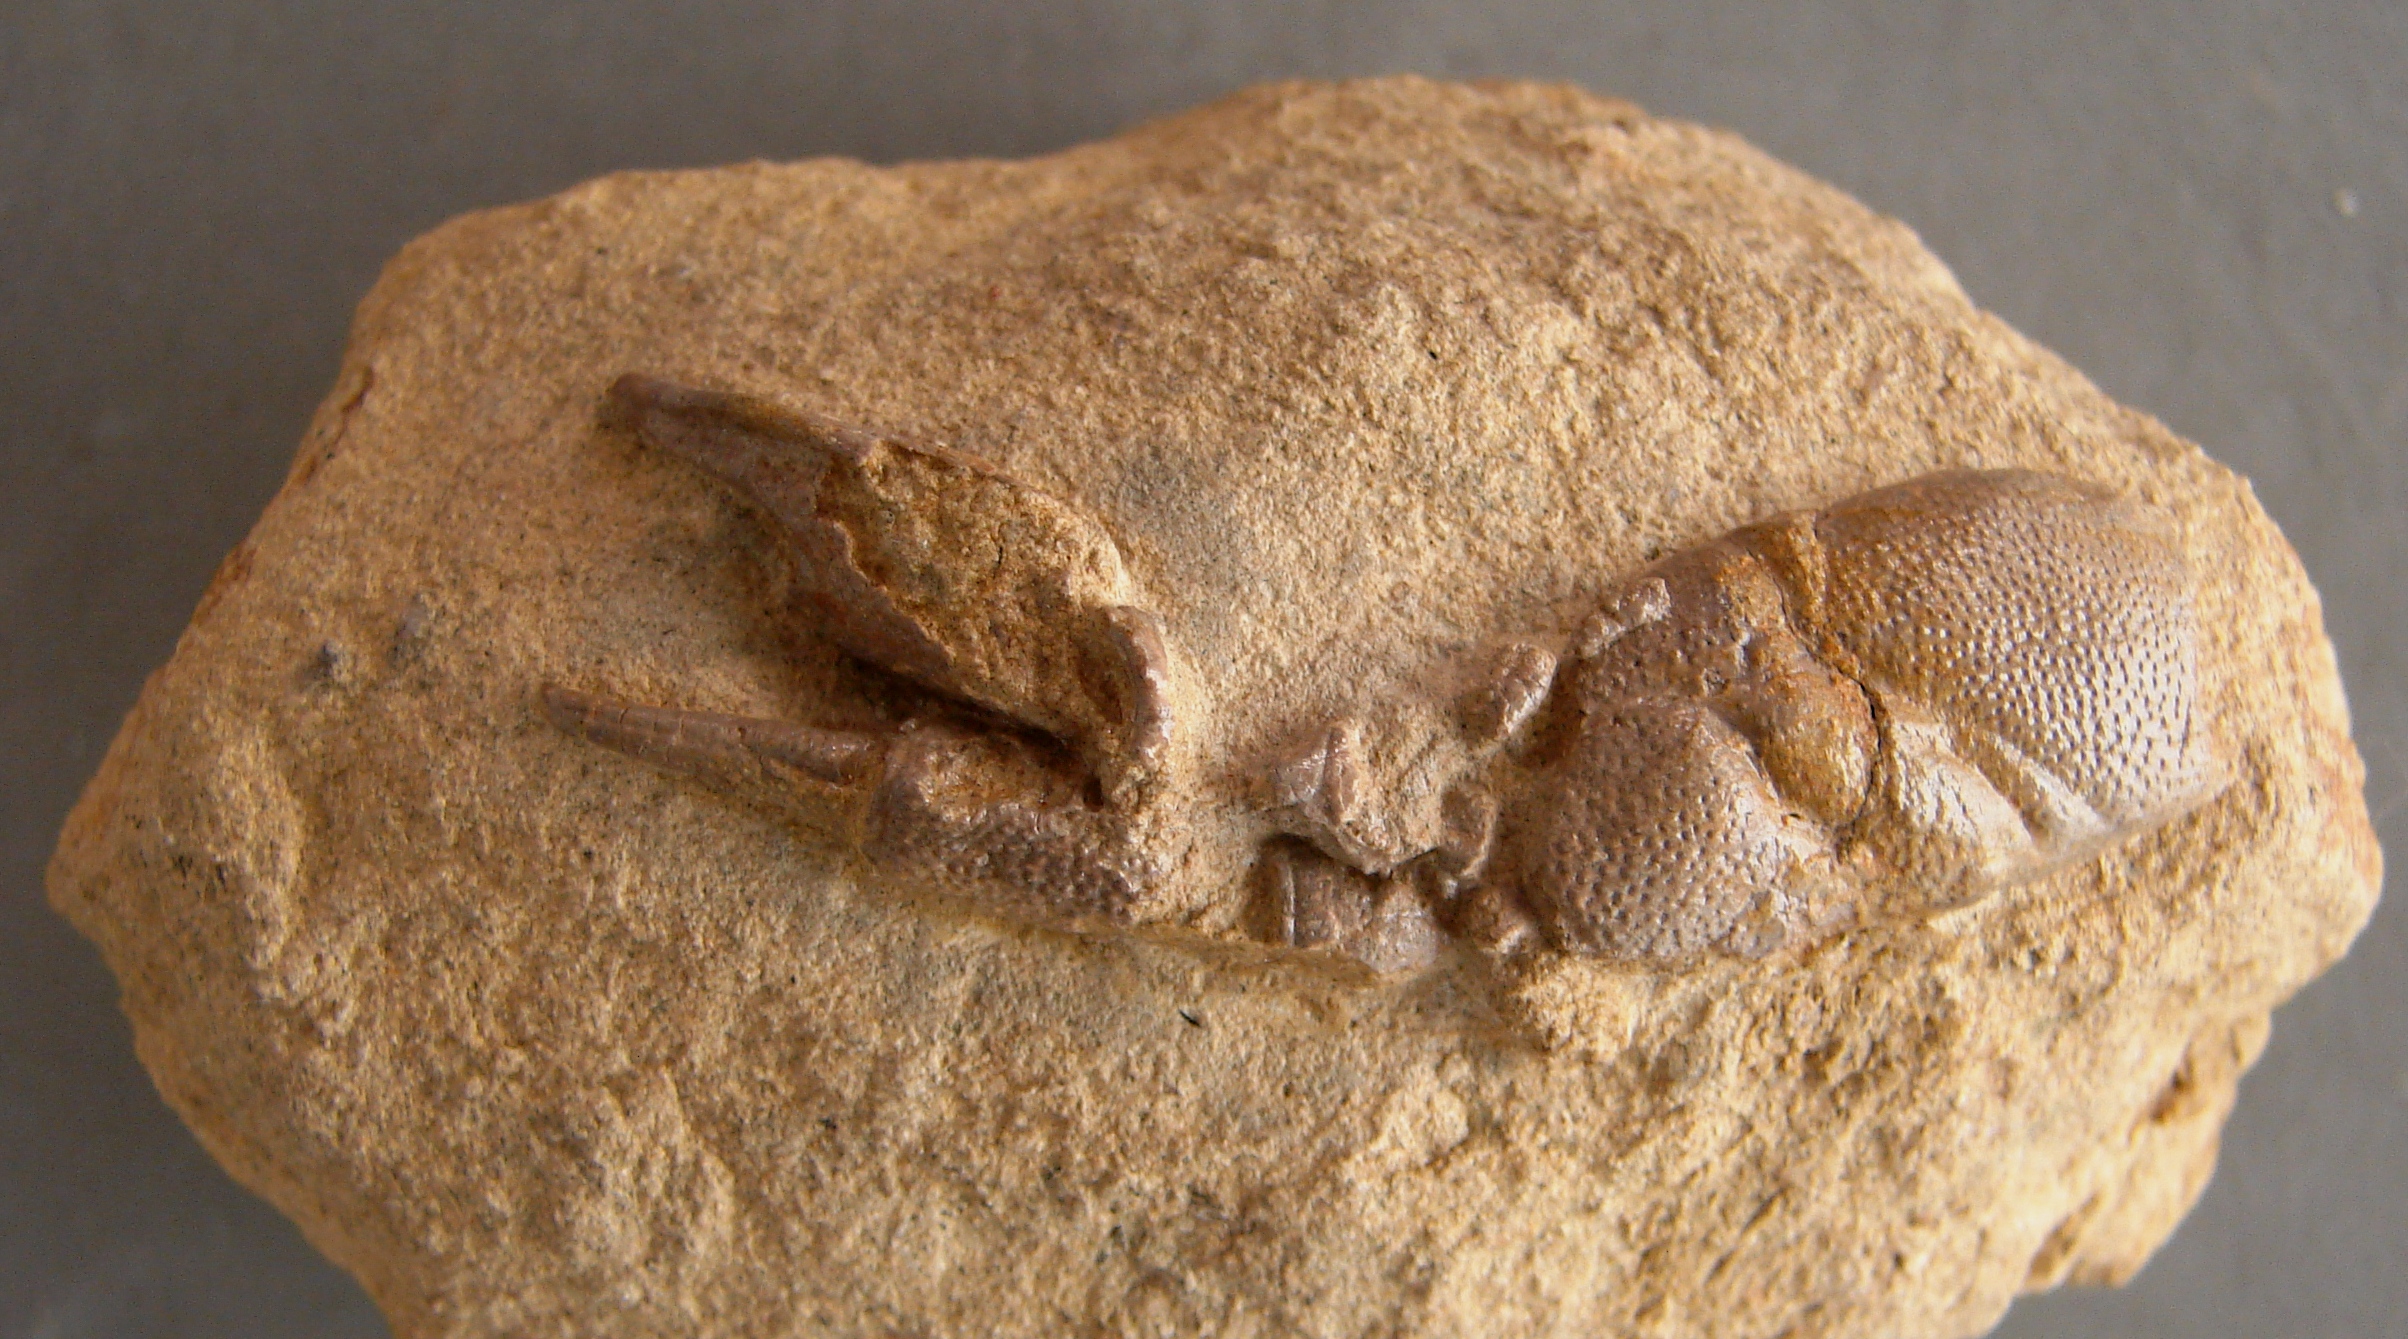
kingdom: Animalia
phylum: Arthropoda
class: Malacostraca
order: Decapoda
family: Erymidae
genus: Eryma
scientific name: Eryma modestiforme
